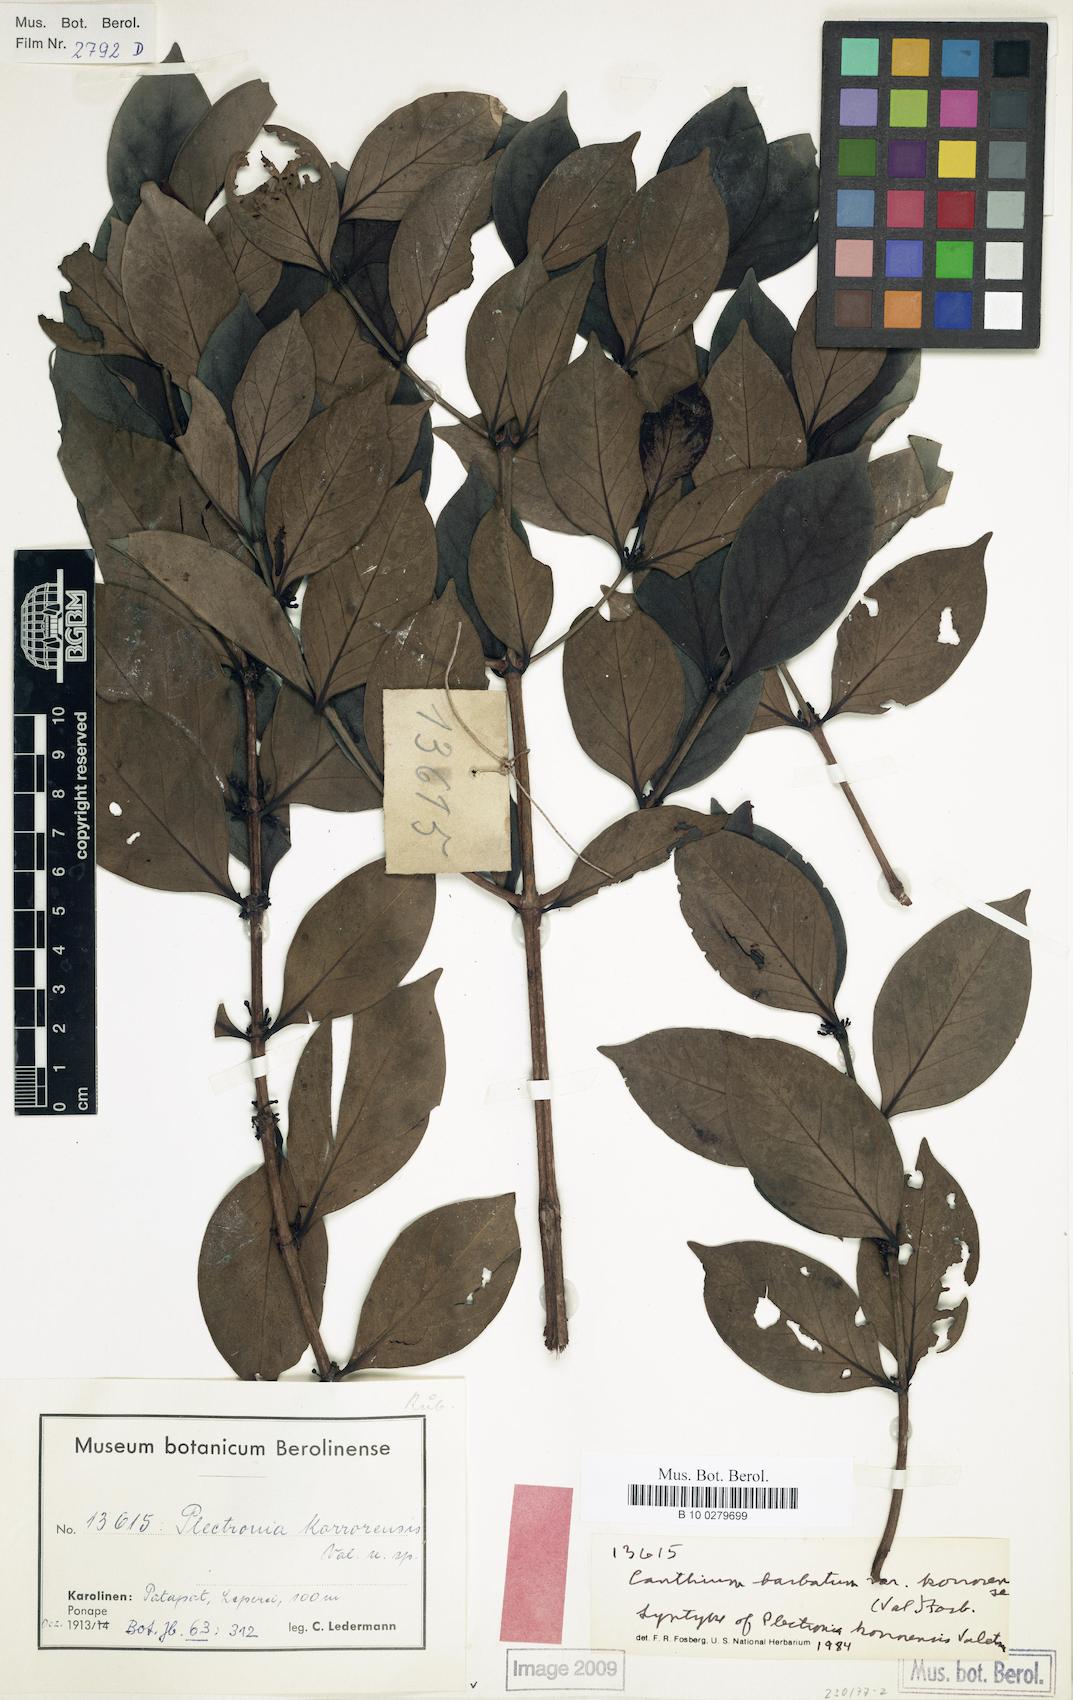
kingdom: Plantae
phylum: Tracheophyta
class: Magnoliopsida
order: Gentianales
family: Rubiaceae
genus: Cyclophyllum
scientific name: Cyclophyllum barbatum
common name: Cyclophyllum
